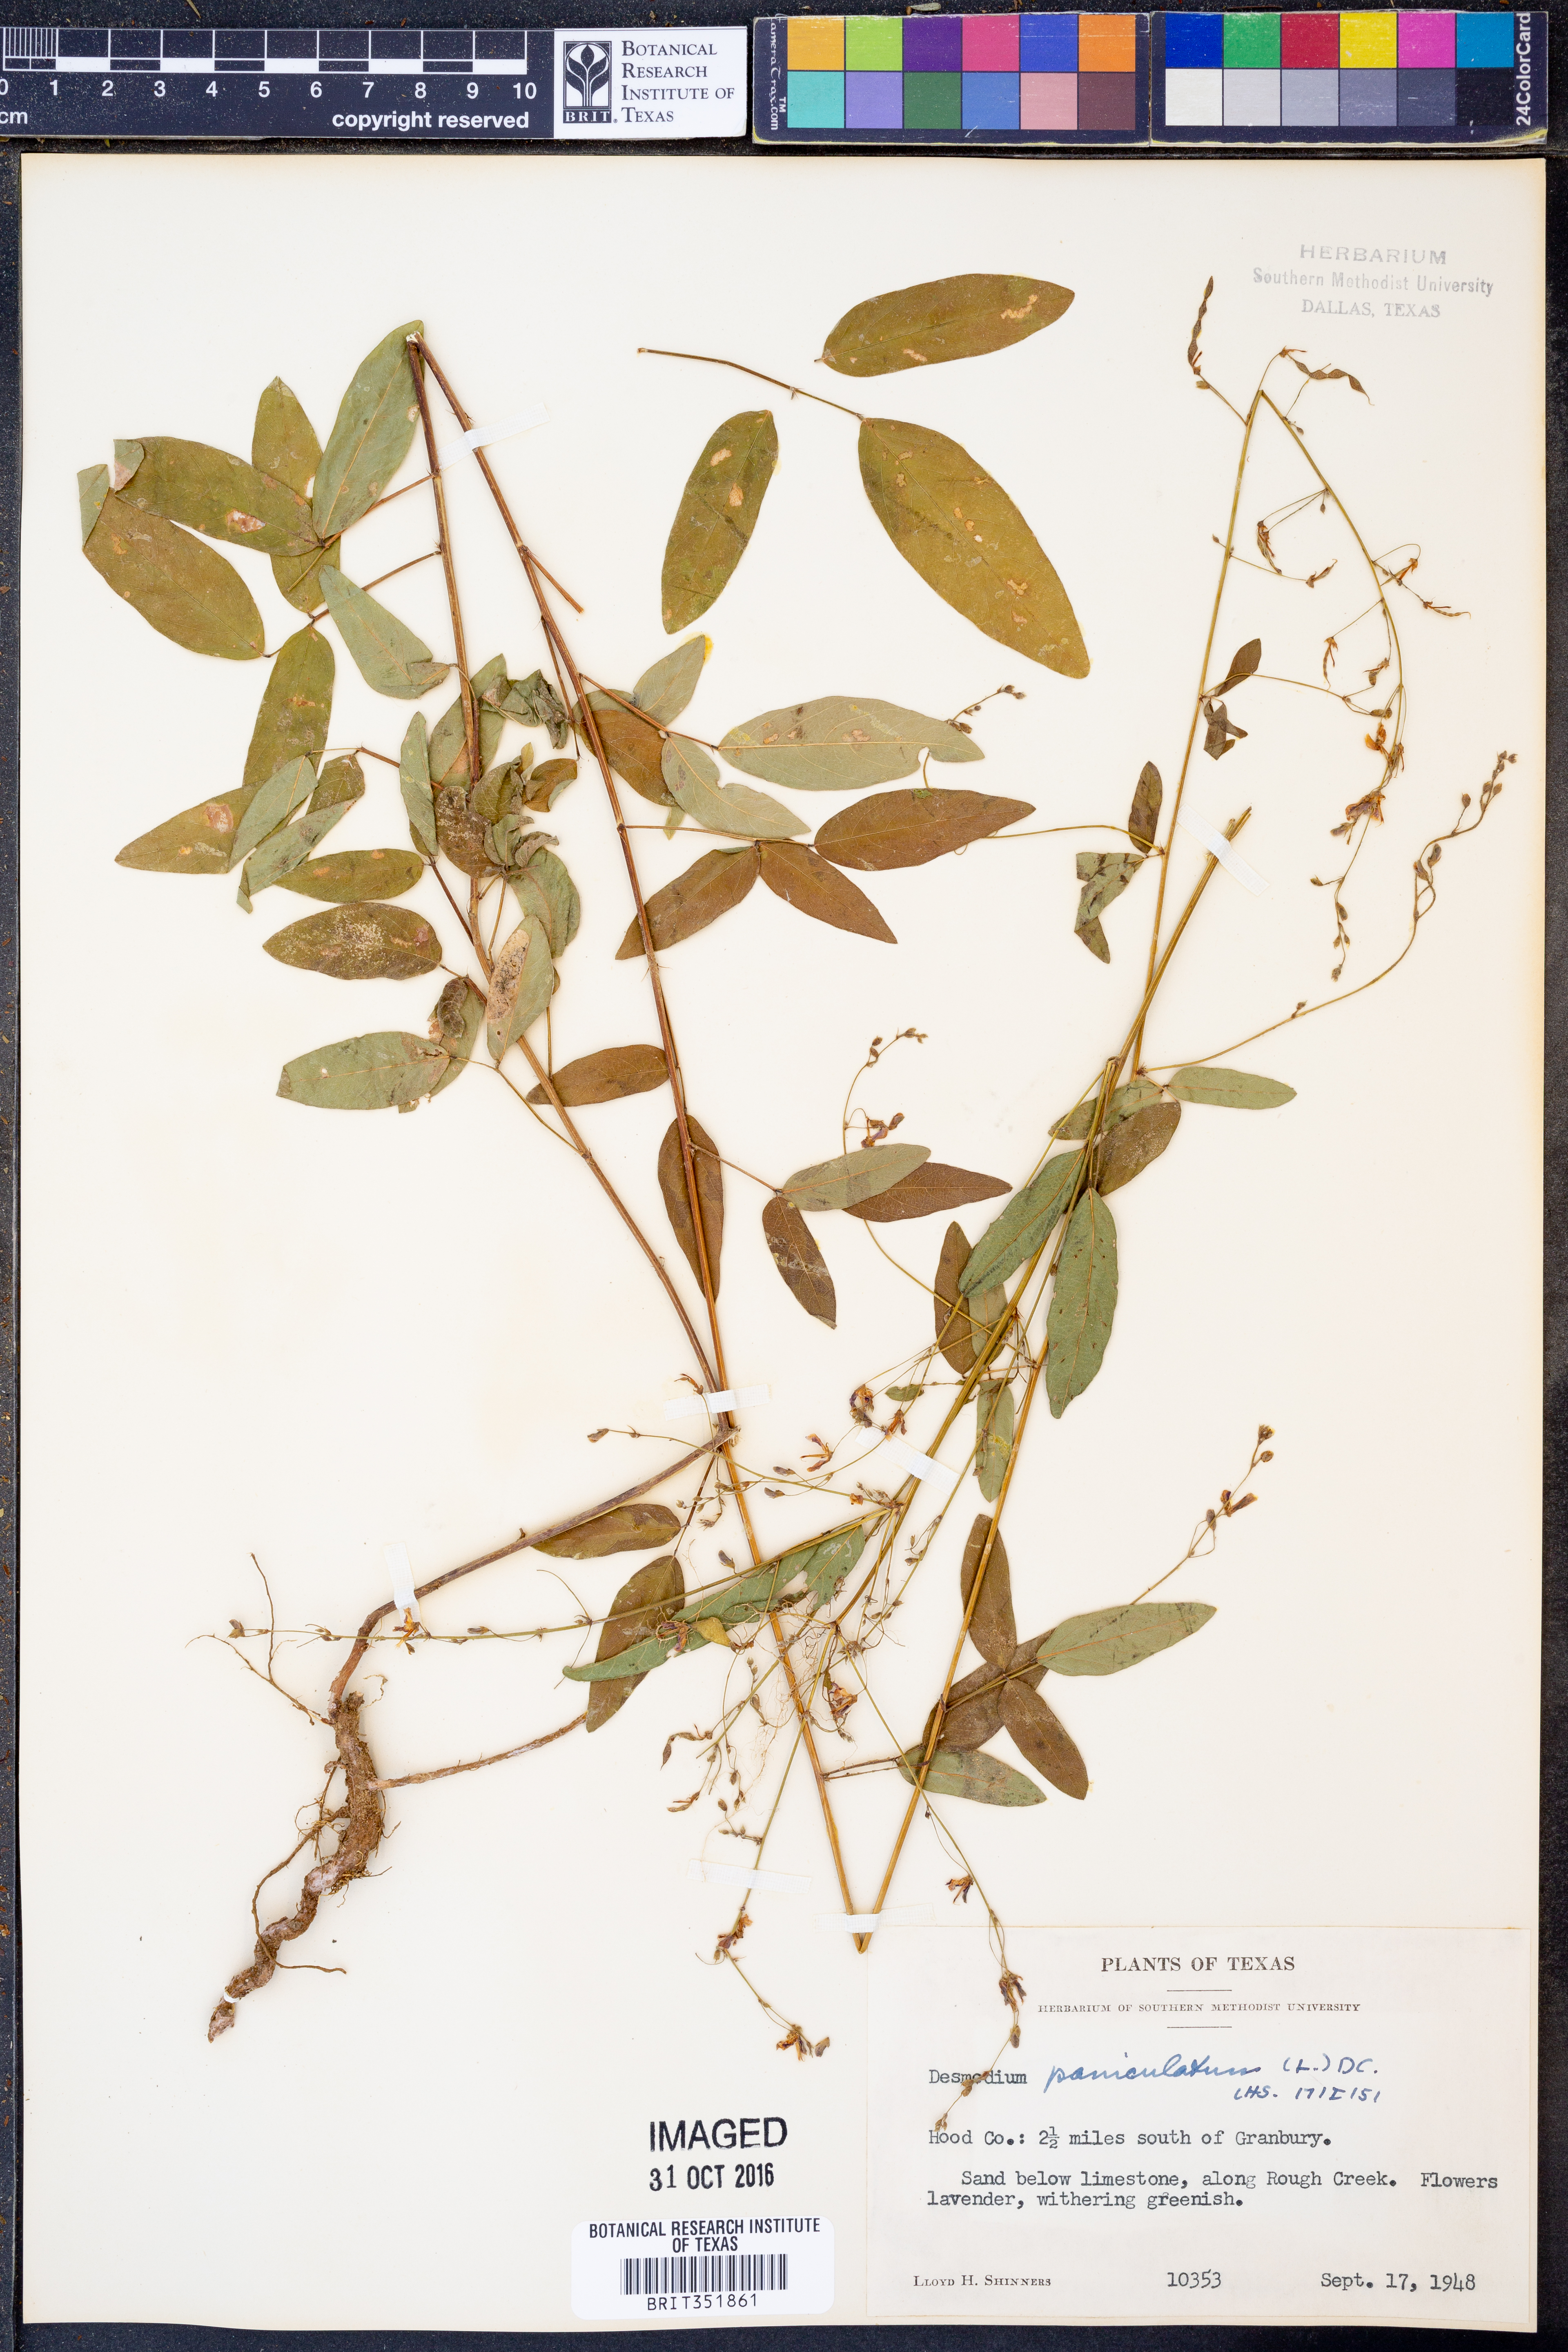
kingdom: Plantae
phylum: Tracheophyta
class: Magnoliopsida
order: Fabales
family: Fabaceae
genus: Desmodium
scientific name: Desmodium paniculatum
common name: Panicled tick-clover
